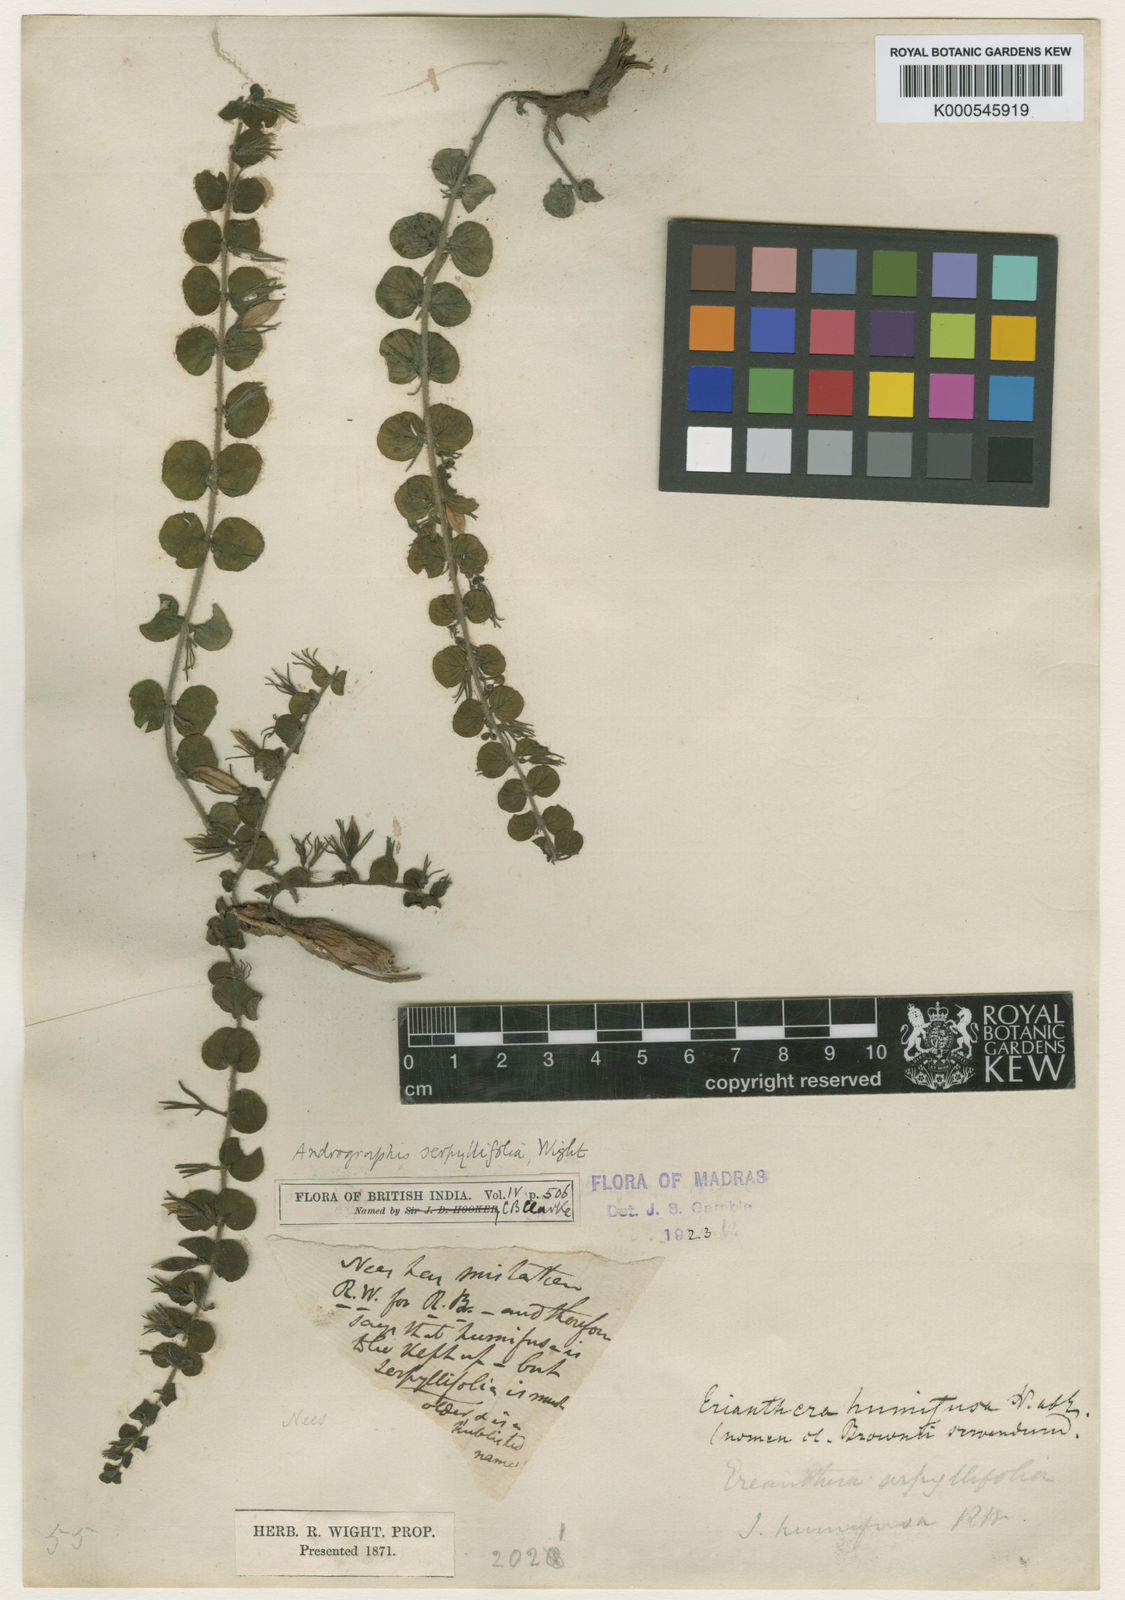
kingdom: Plantae
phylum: Tracheophyta
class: Magnoliopsida
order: Lamiales
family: Acanthaceae
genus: Andrographis
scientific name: Andrographis serpyllifolia
